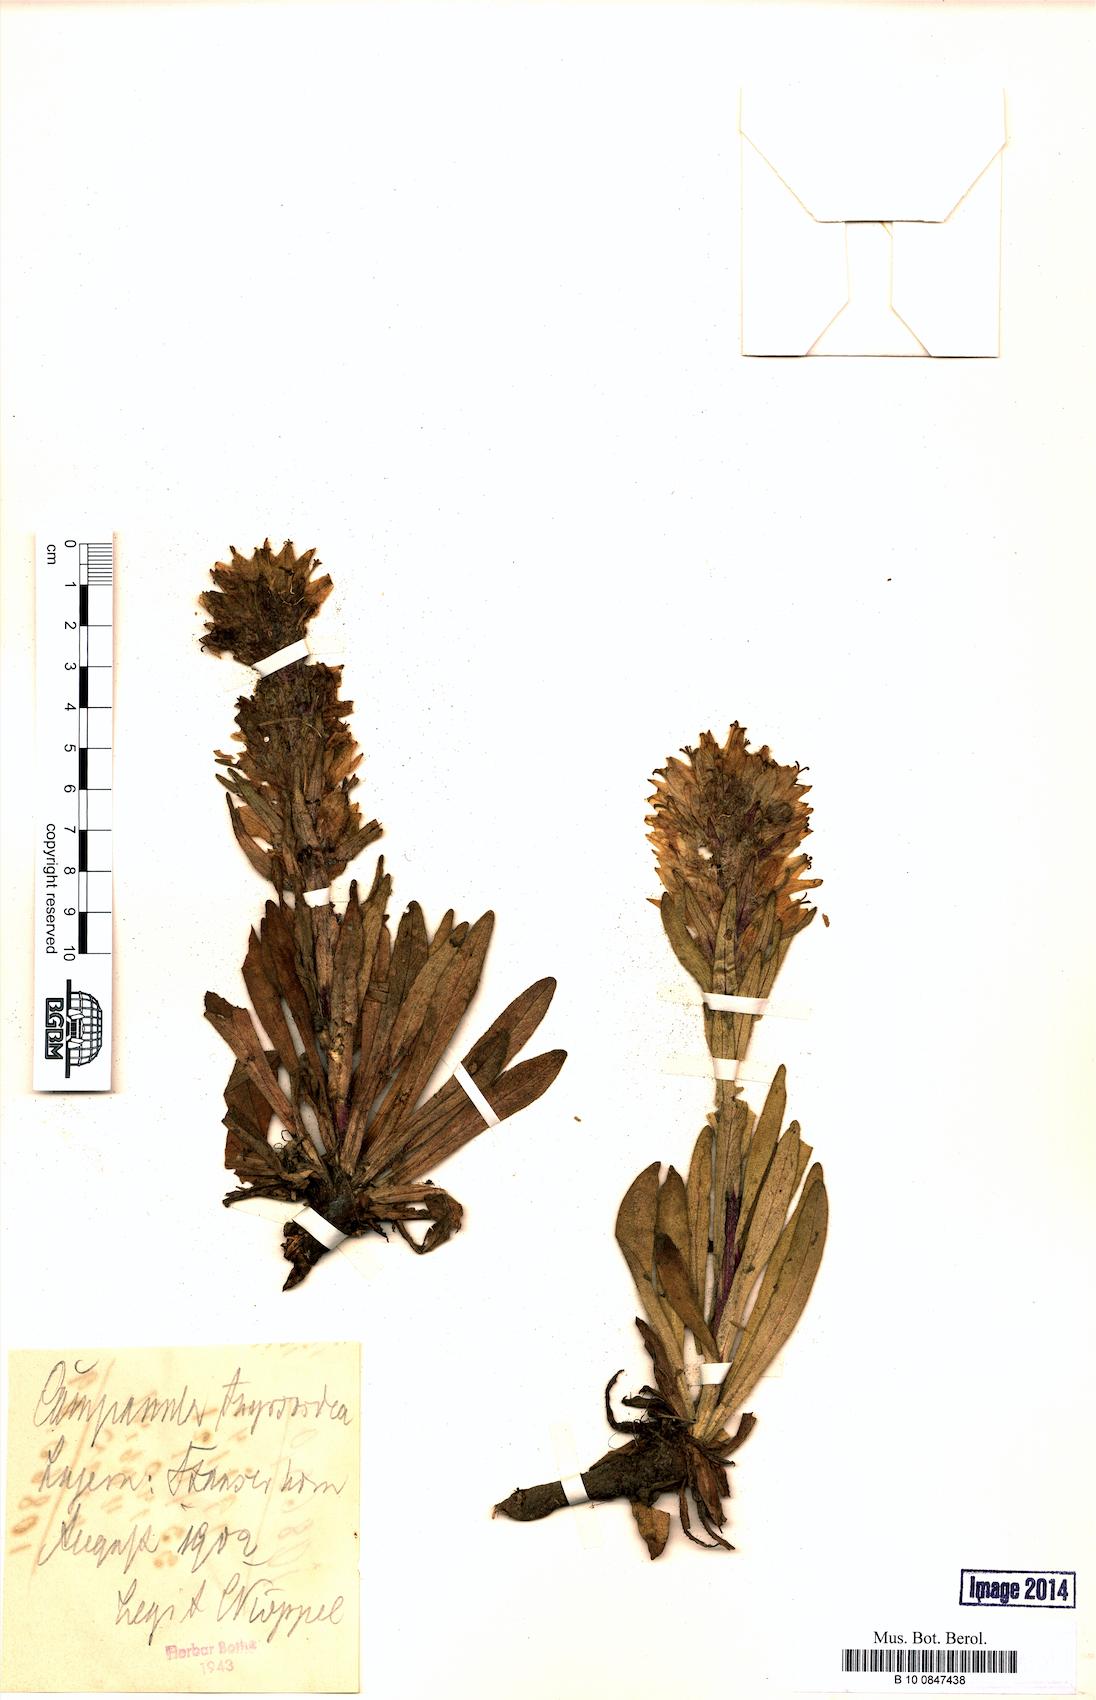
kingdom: Plantae
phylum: Tracheophyta
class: Magnoliopsida
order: Asterales
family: Campanulaceae
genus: Campanula
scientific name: Campanula thyrsoides
